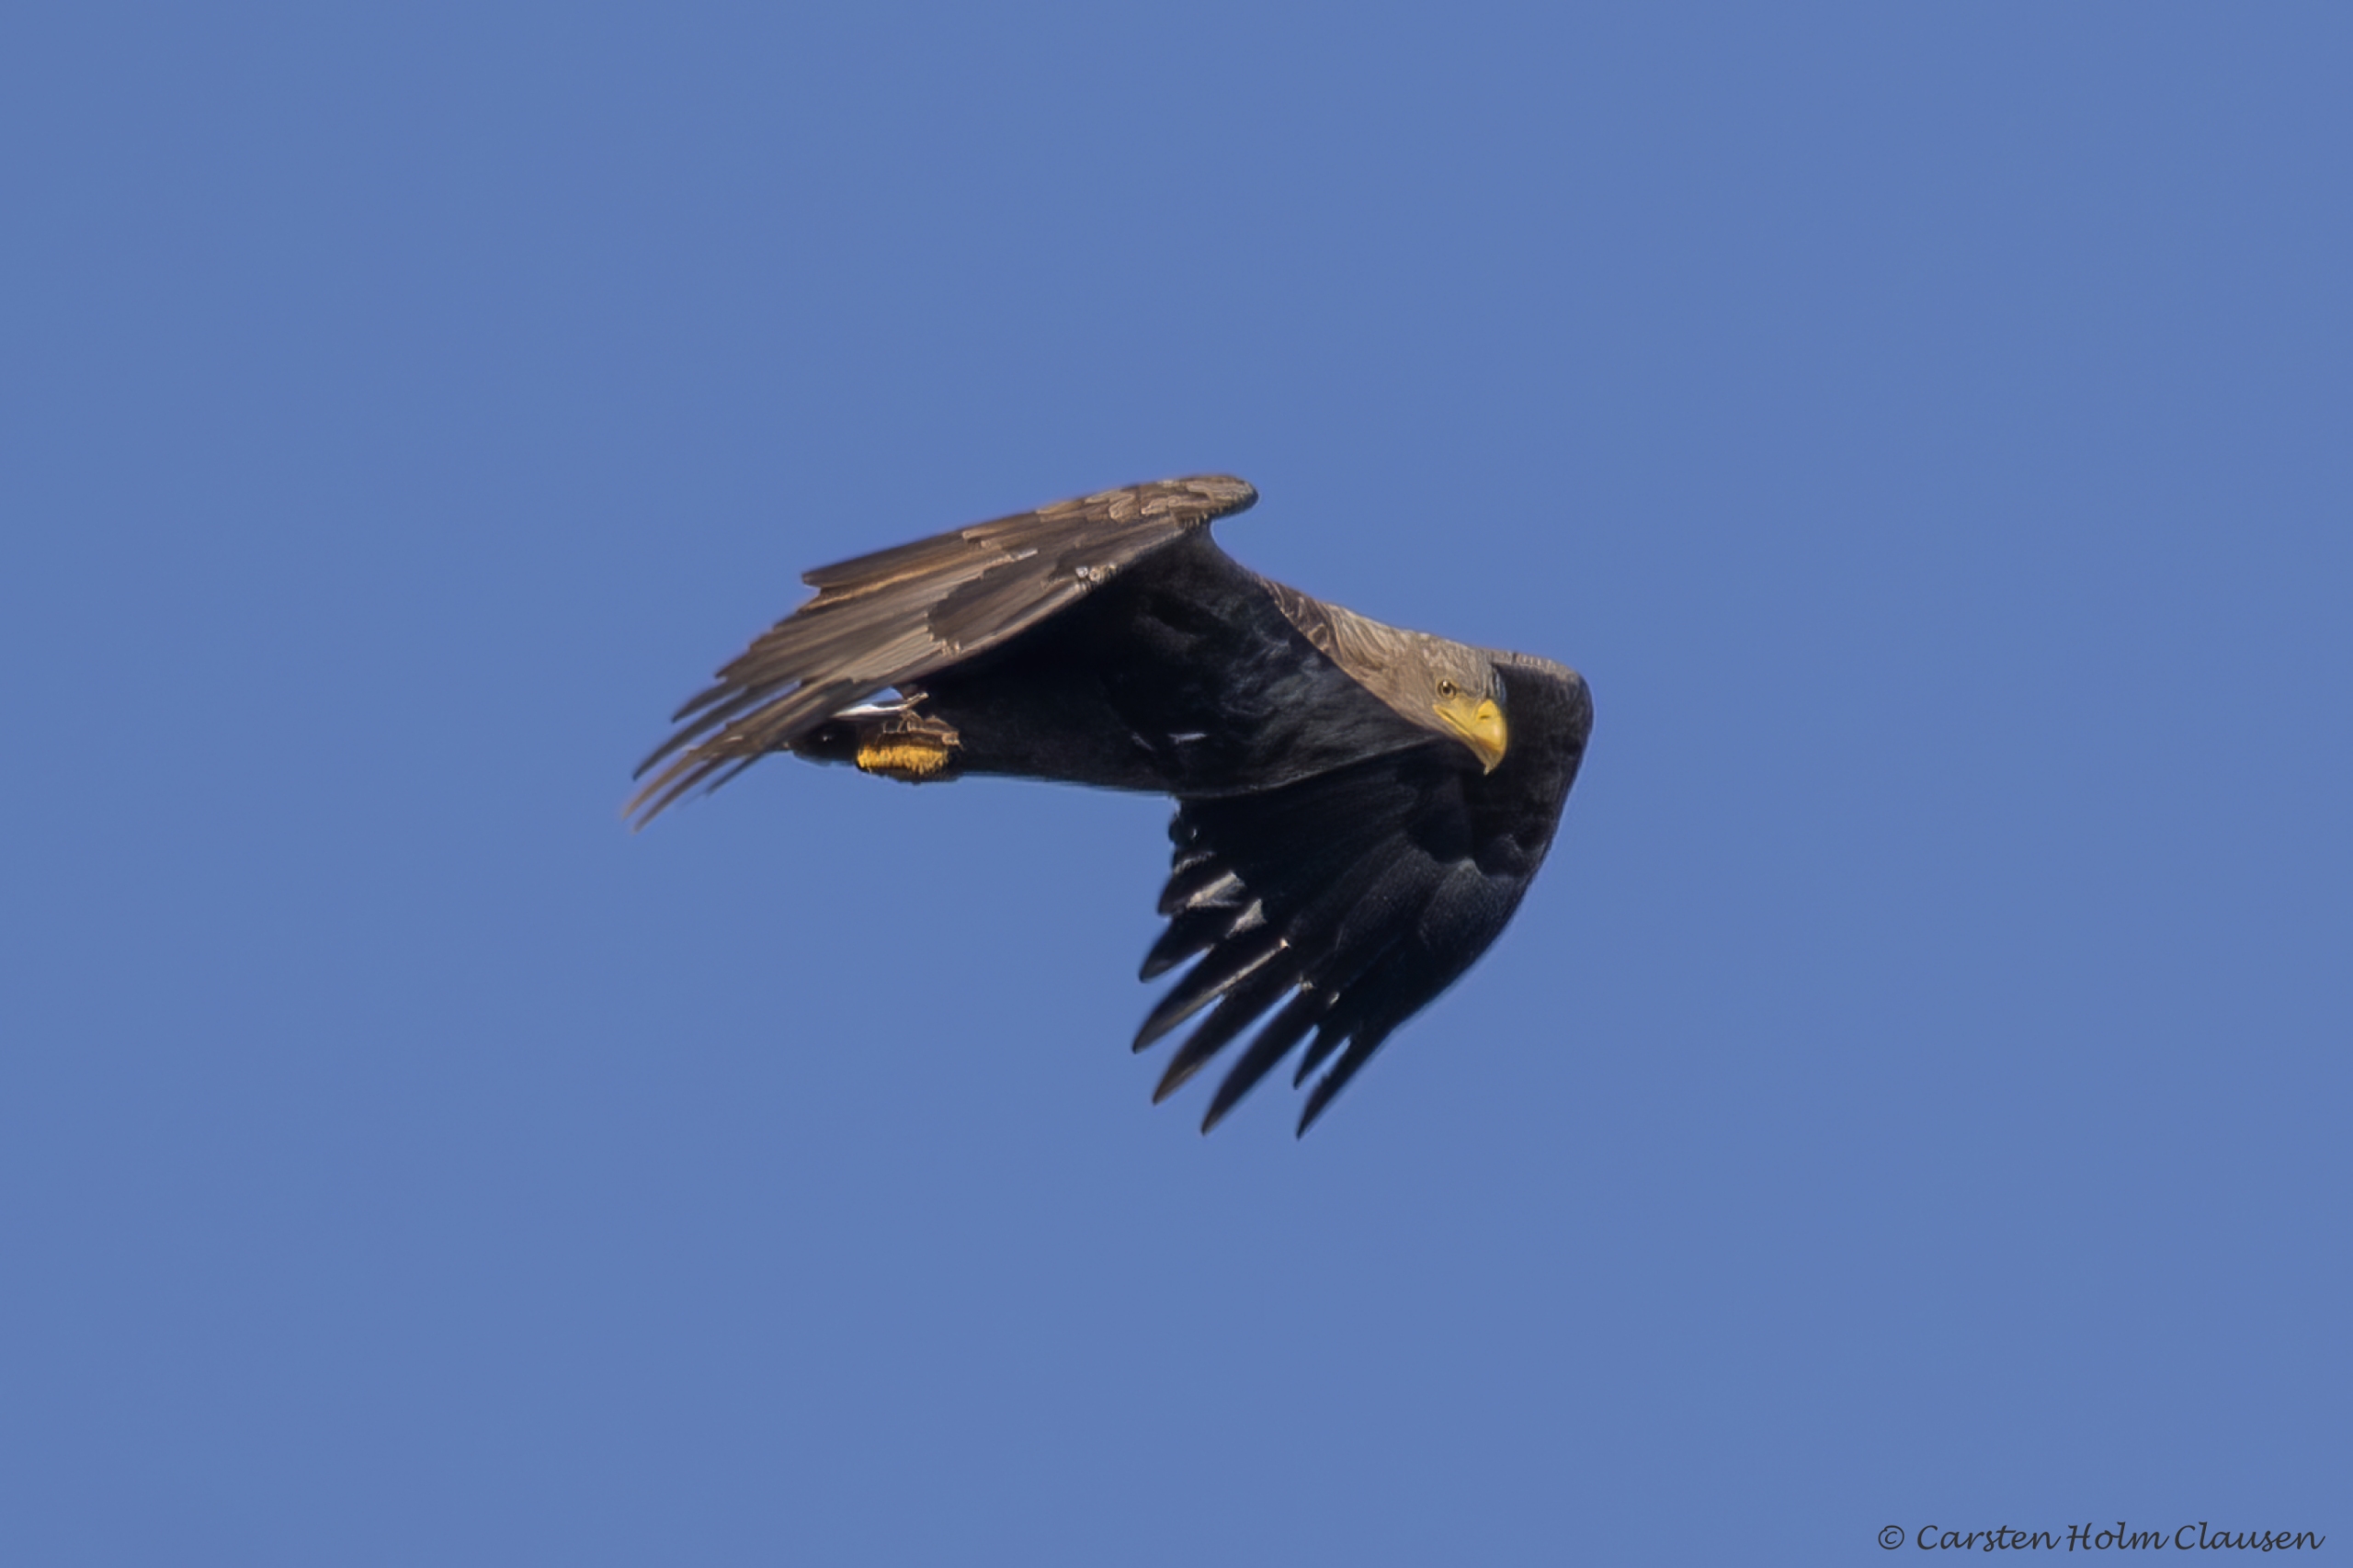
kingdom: Animalia
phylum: Chordata
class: Aves
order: Accipitriformes
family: Accipitridae
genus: Haliaeetus
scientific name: Haliaeetus albicilla
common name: Havørn
